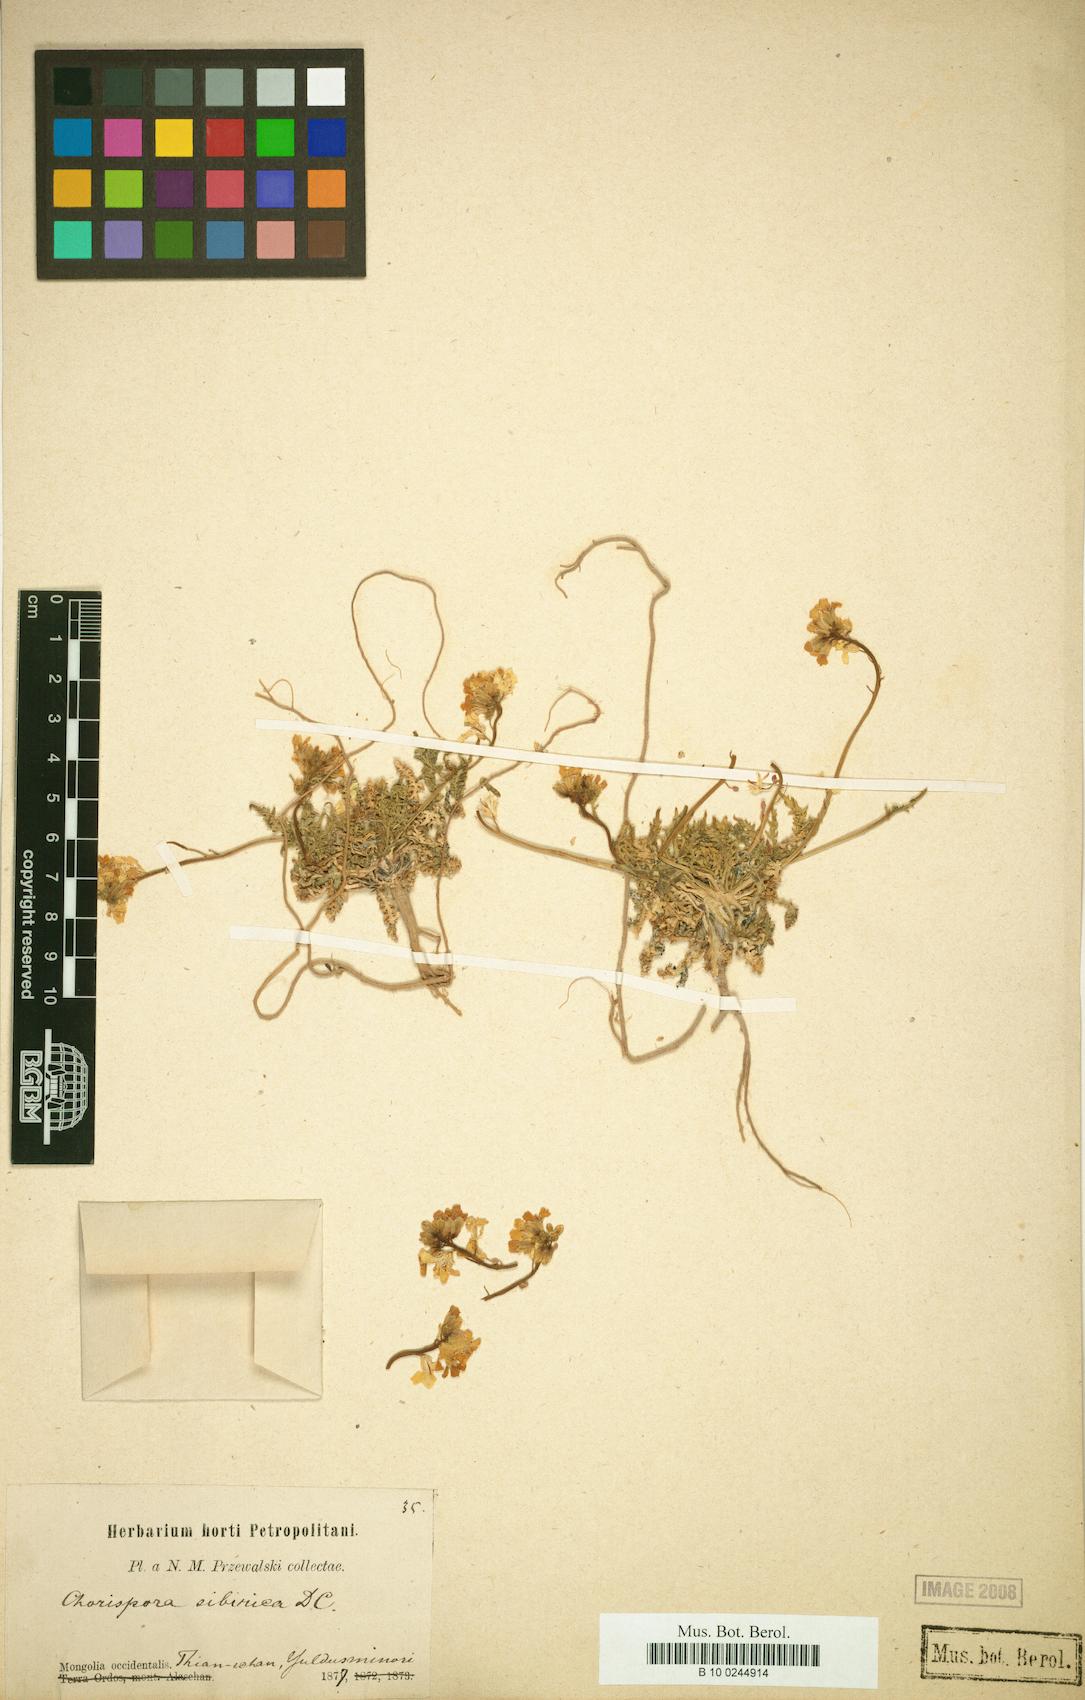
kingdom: Plantae
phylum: Tracheophyta
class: Magnoliopsida
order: Brassicales
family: Brassicaceae
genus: Chorispora
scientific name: Chorispora sibirica
